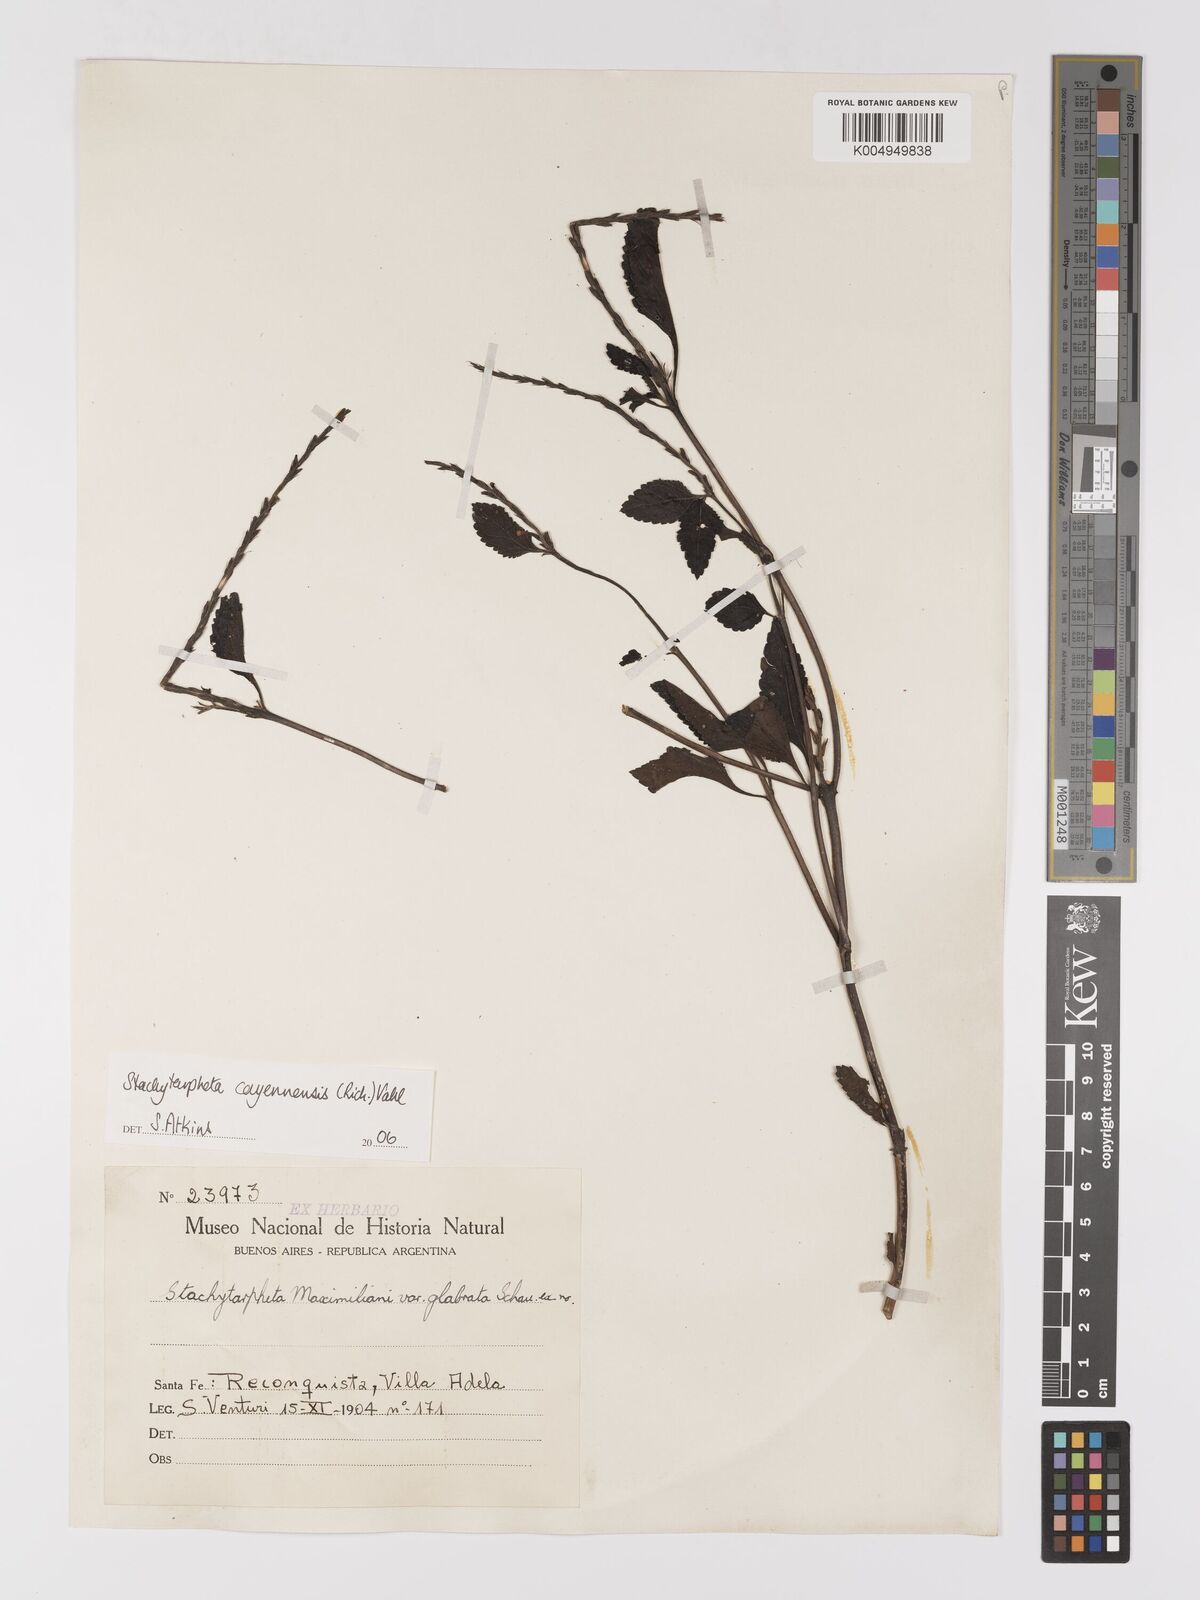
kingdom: Plantae
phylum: Tracheophyta
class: Magnoliopsida
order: Lamiales
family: Verbenaceae
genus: Stachytarpheta
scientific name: Stachytarpheta cayennensis
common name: Cayenne porterweed
